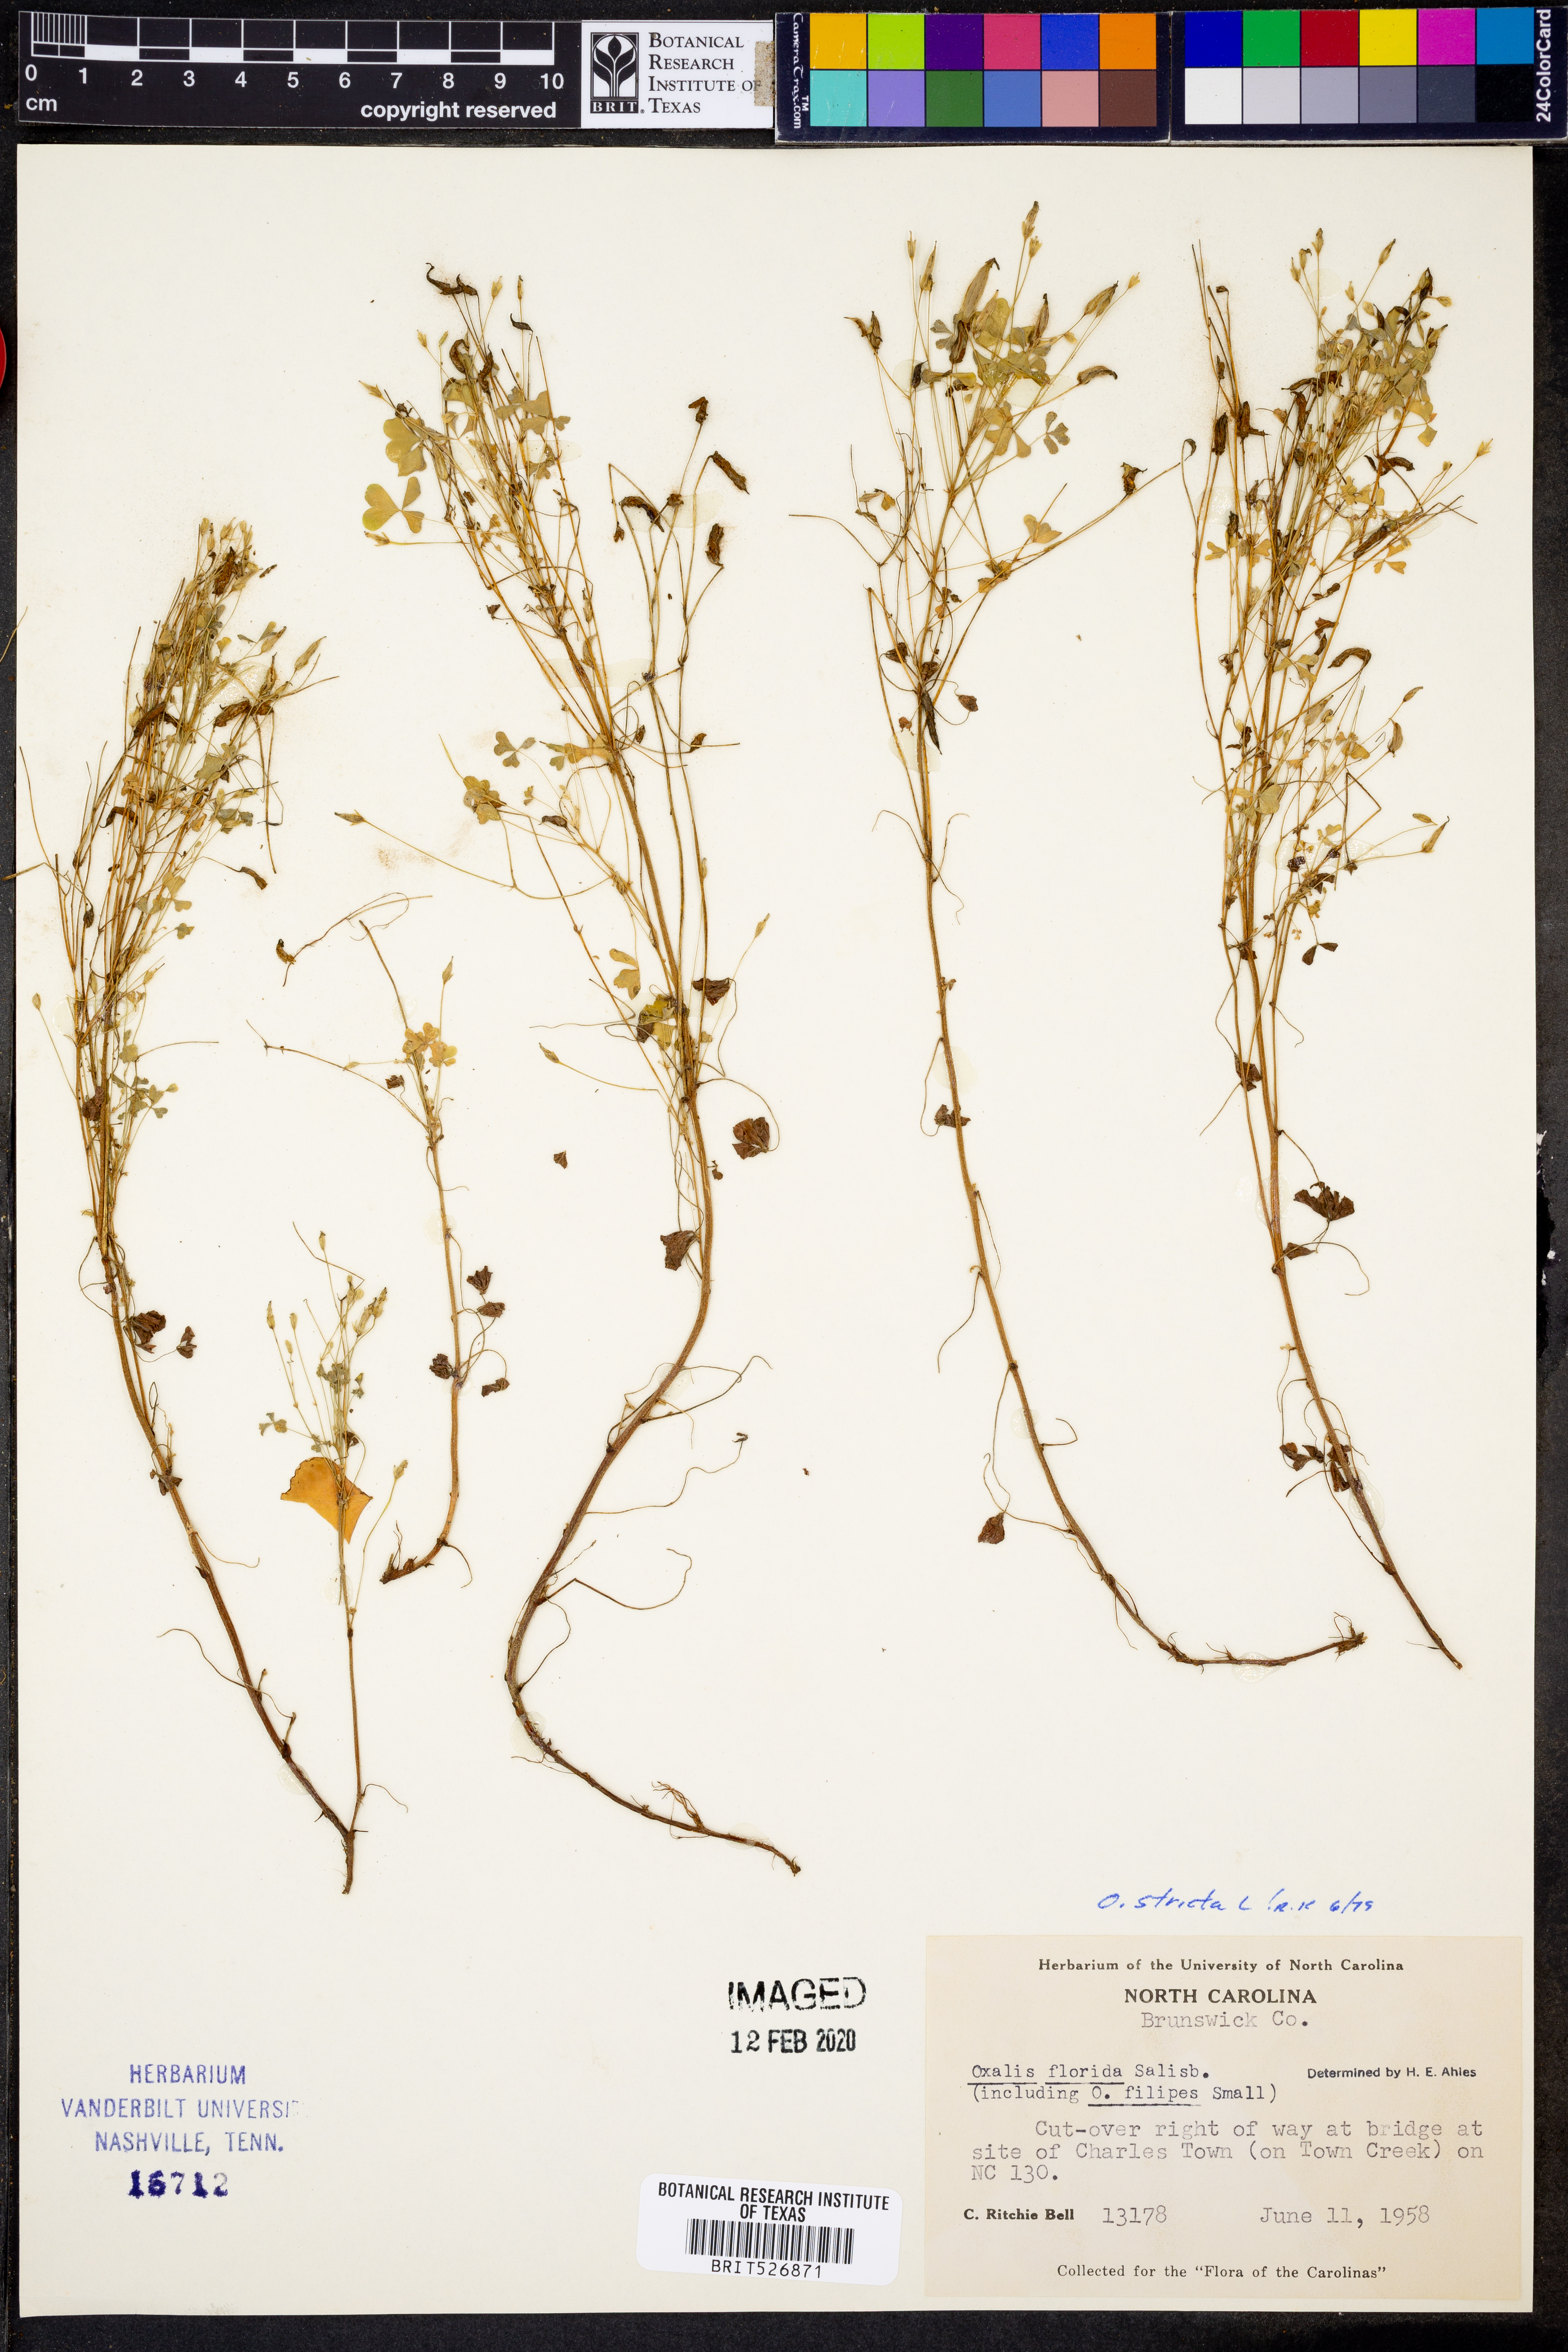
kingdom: Plantae
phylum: Tracheophyta
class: Magnoliopsida
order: Oxalidales
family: Oxalidaceae
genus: Oxalis
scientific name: Oxalis stricta
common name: Upright yellow-sorrel
